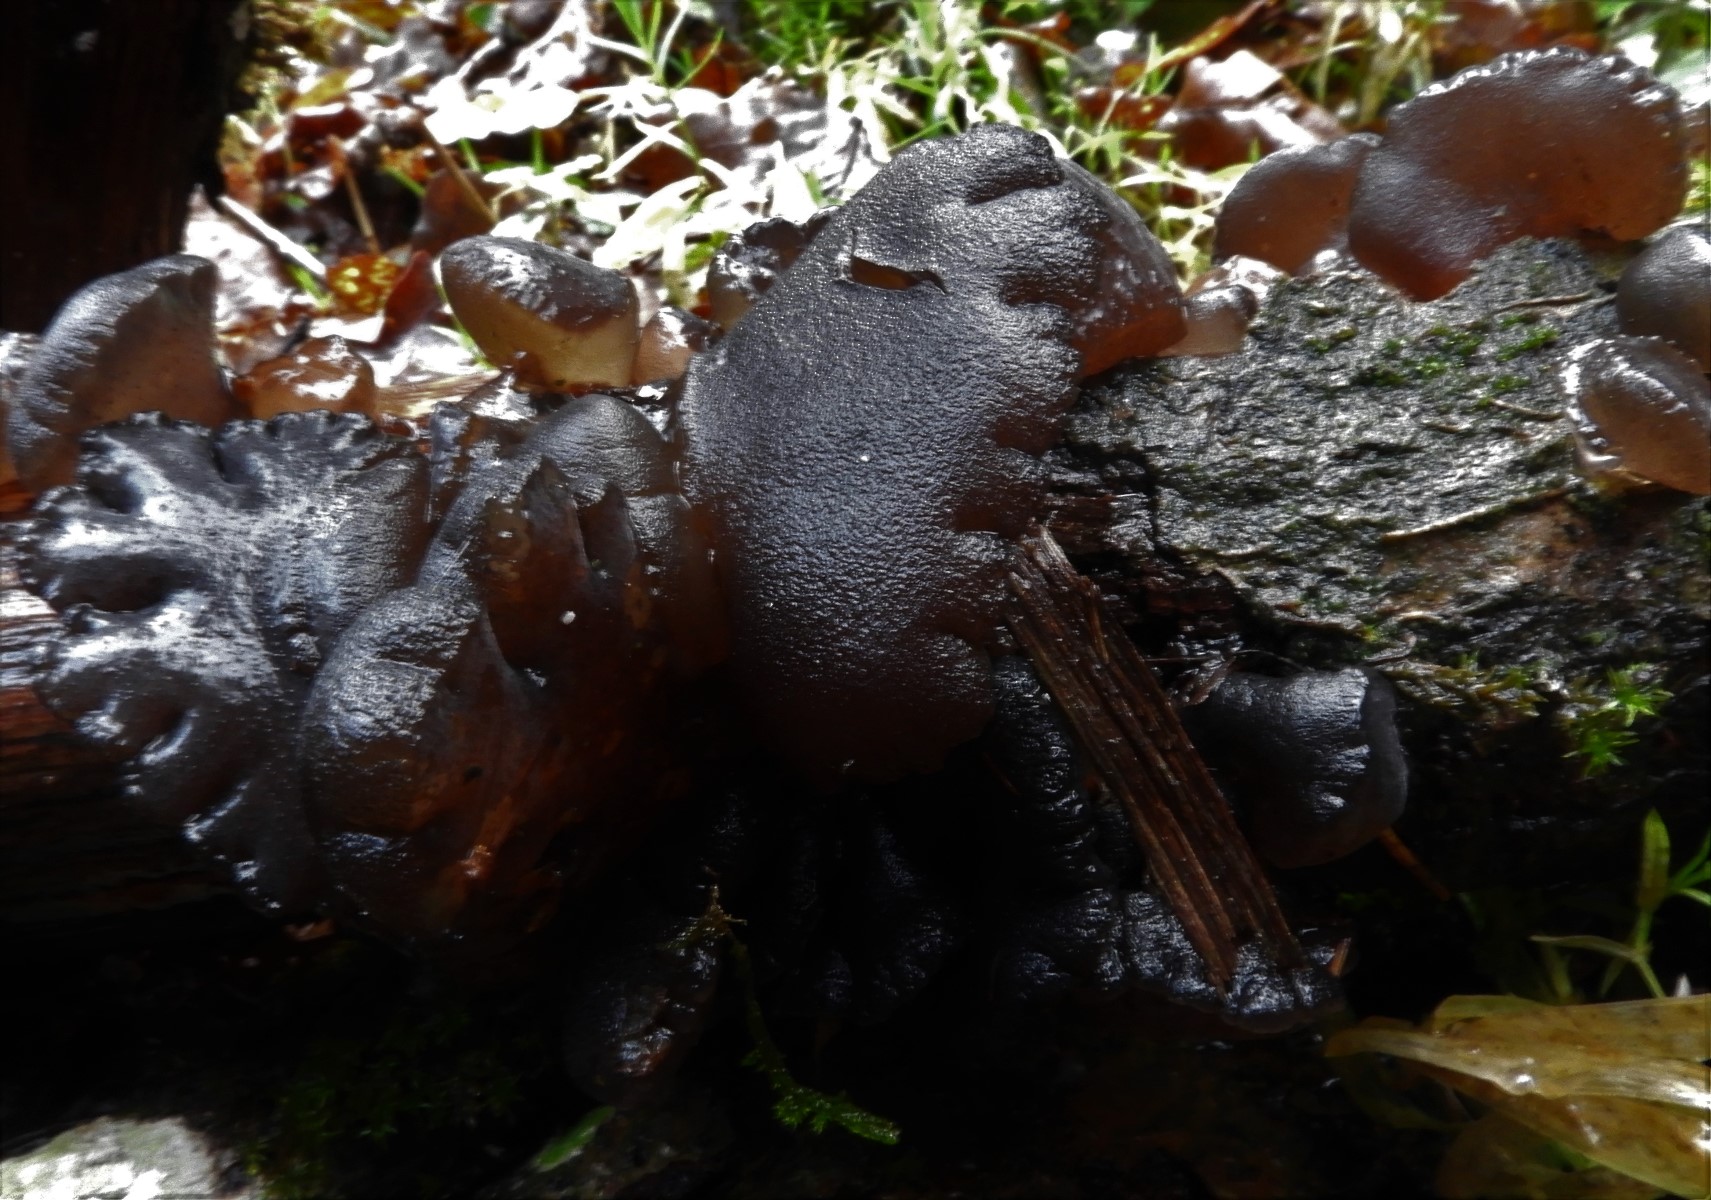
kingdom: Fungi
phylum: Basidiomycota
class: Agaricomycetes
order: Auriculariales
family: Auriculariaceae
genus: Exidia
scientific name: Exidia glandulosa
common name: ege-bævretop
